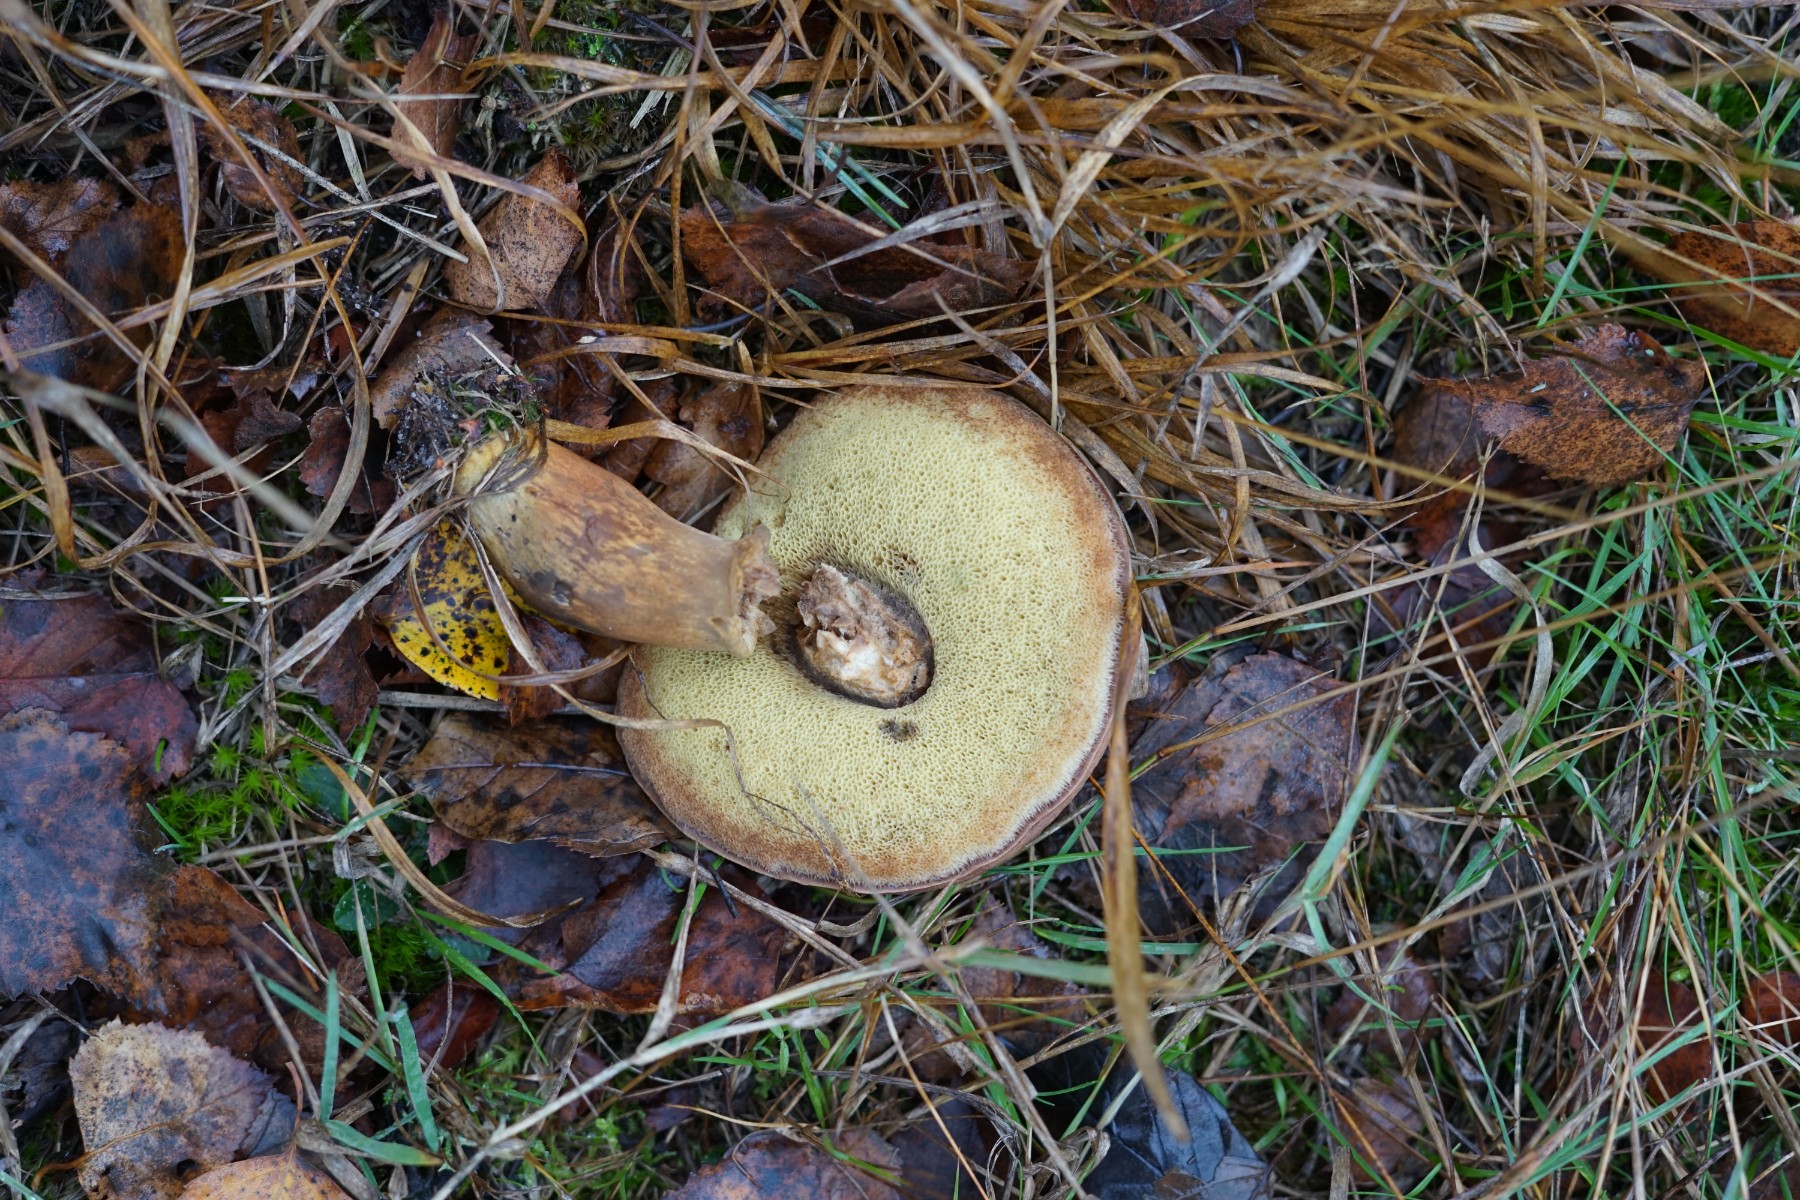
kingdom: Fungi
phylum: Basidiomycota
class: Agaricomycetes
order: Boletales
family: Boletaceae
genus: Imleria
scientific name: Imleria badia
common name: brunstokket rørhat
